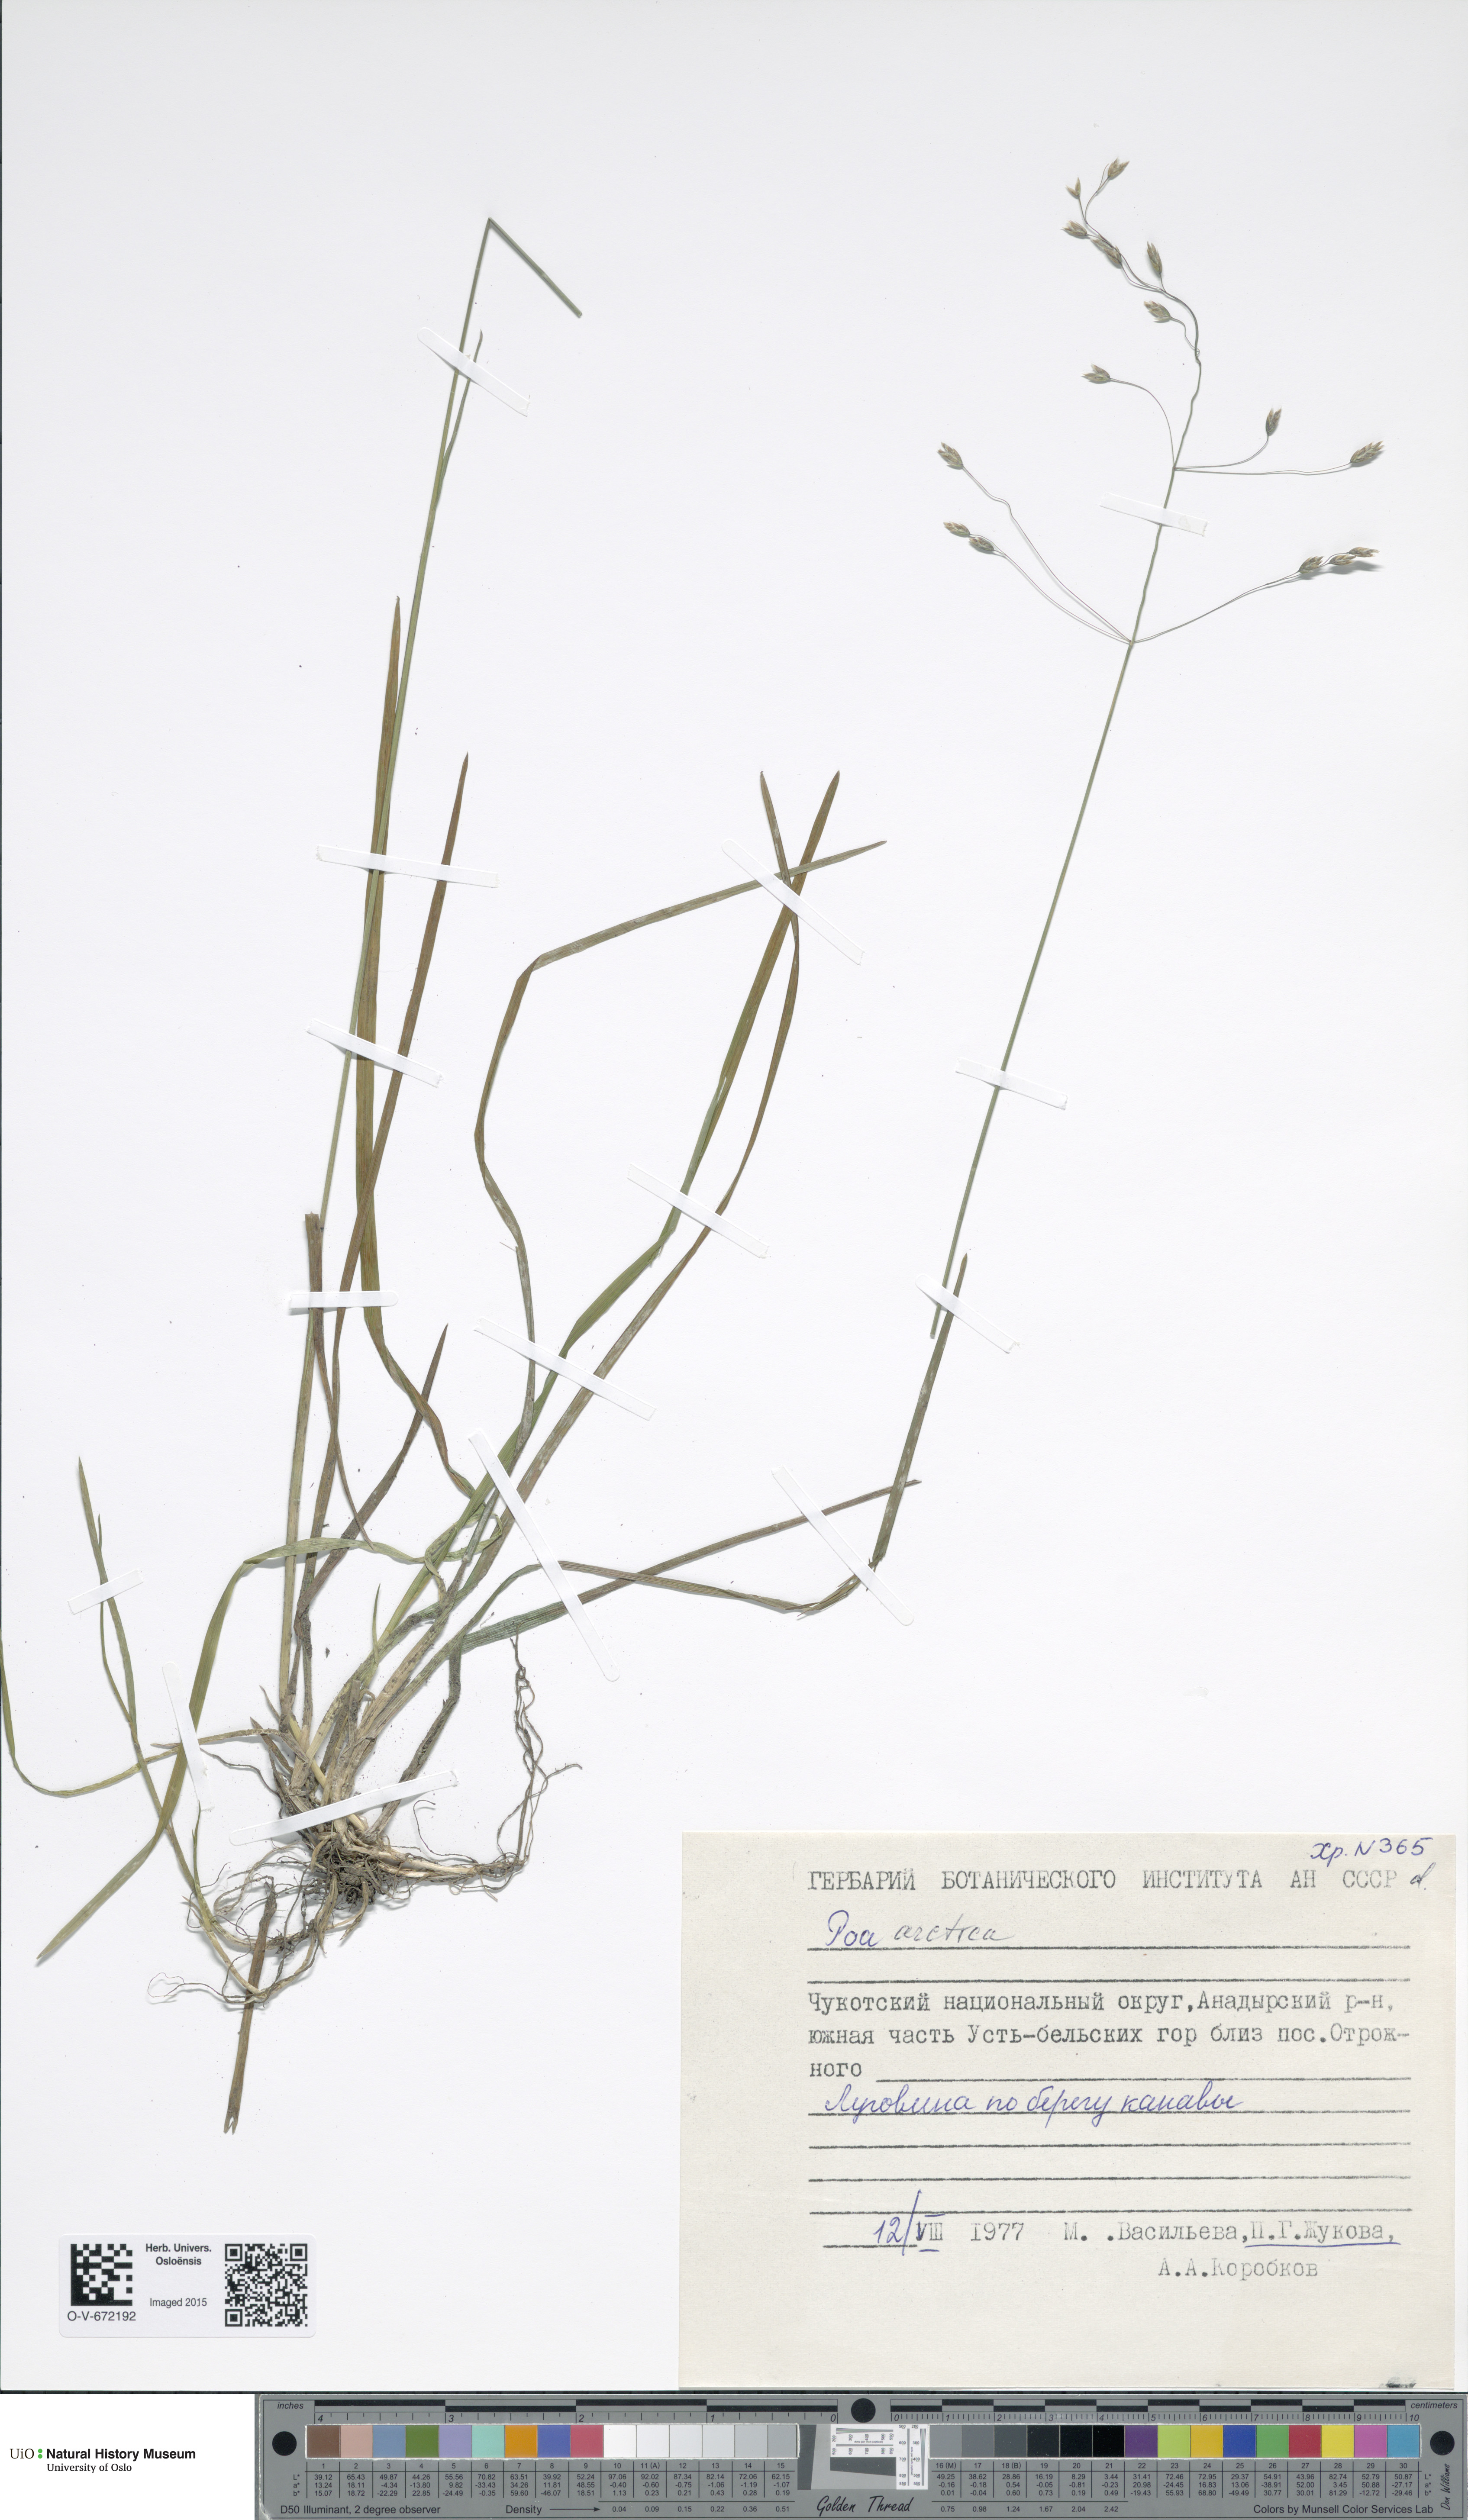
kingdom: Plantae
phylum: Tracheophyta
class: Liliopsida
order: Poales
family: Poaceae
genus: Poa
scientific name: Poa arctica
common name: Arctic bluegrass
